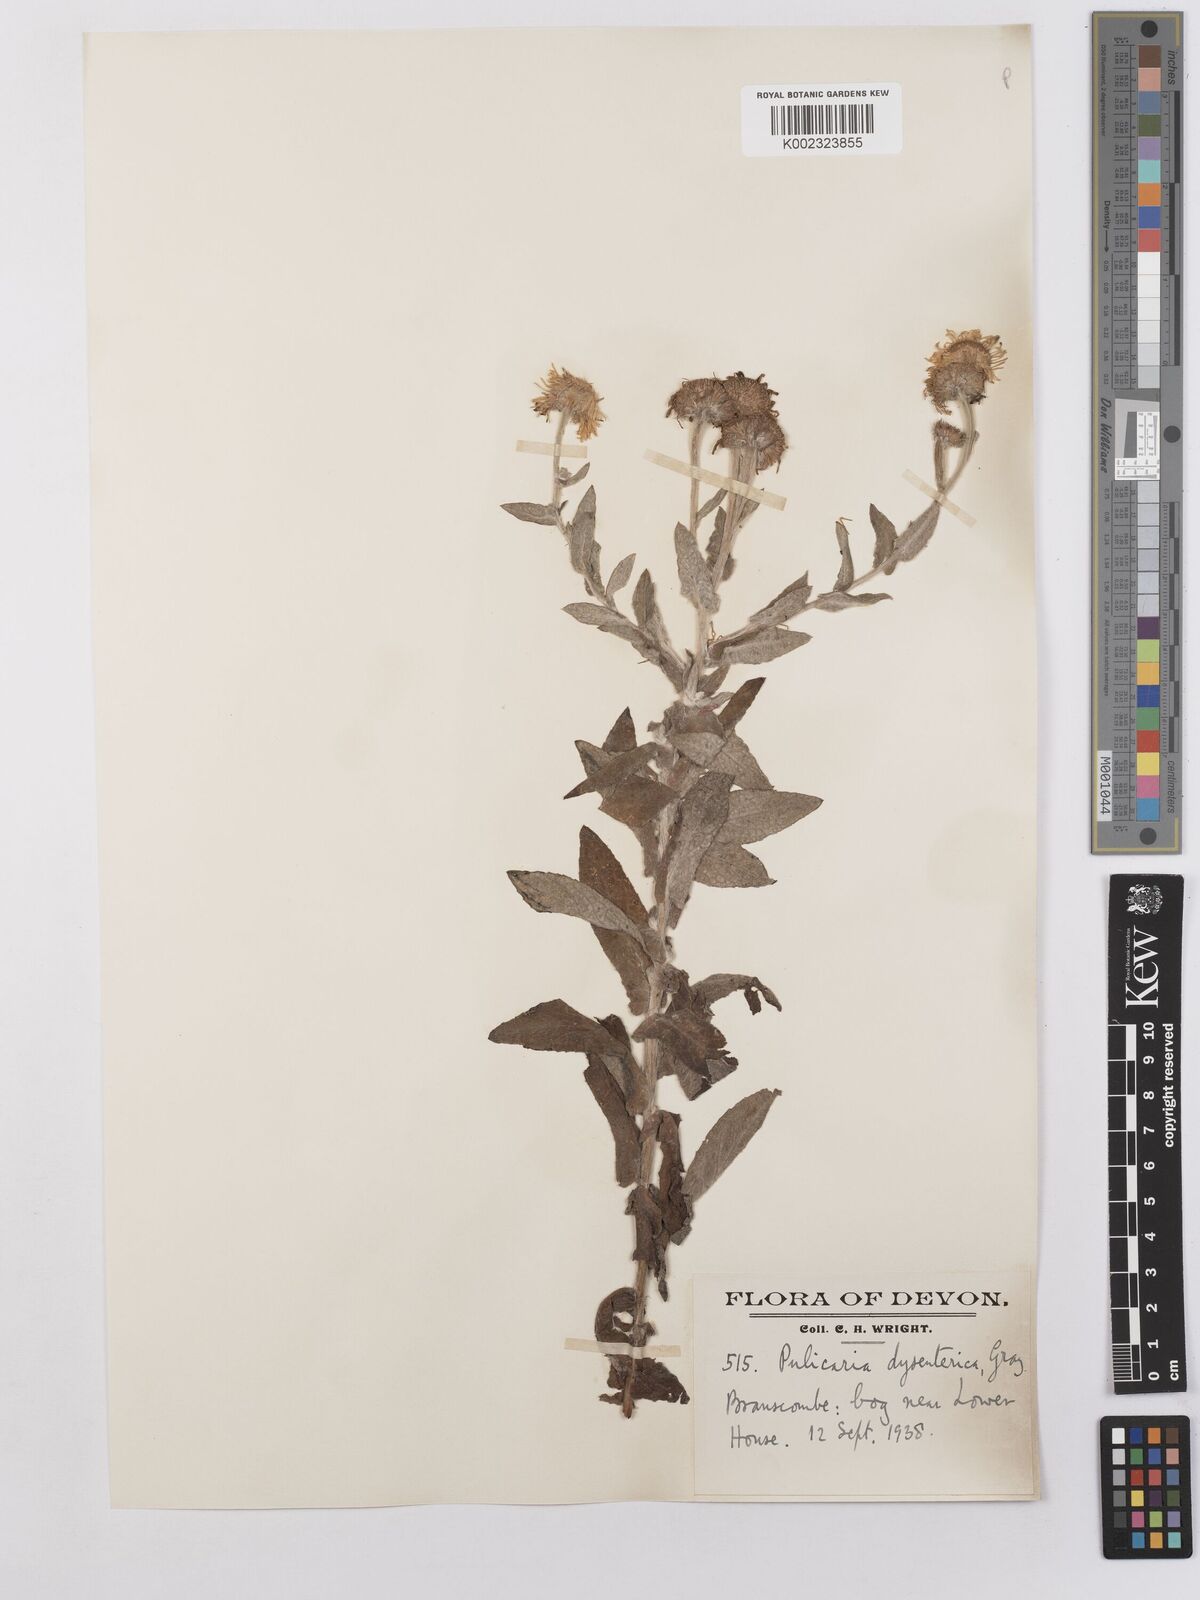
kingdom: Plantae
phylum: Tracheophyta
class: Magnoliopsida
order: Asterales
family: Asteraceae
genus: Pulicaria
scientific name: Pulicaria dysenterica
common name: Common fleabane
